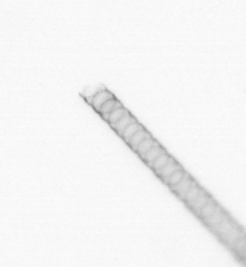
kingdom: Chromista
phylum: Ochrophyta
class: Bacillariophyceae
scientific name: Bacillariophyceae
